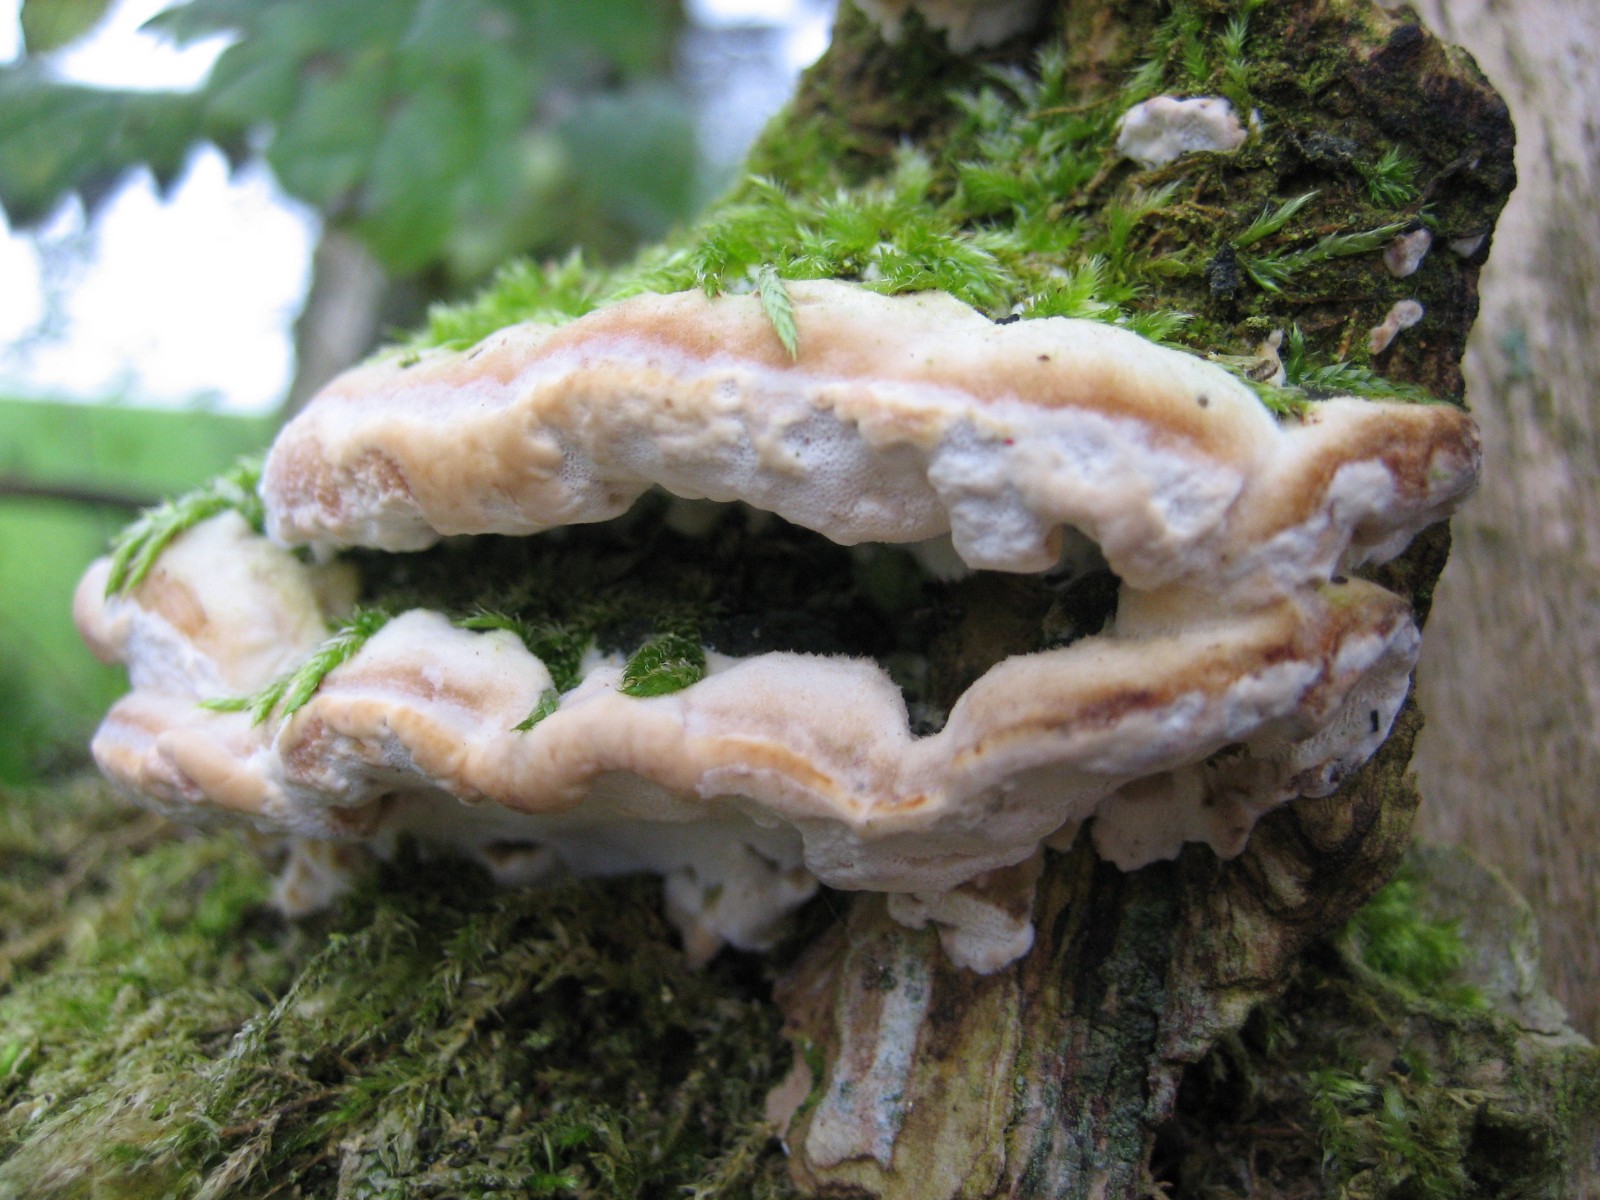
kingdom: Fungi
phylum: Basidiomycota
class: Agaricomycetes
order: Polyporales
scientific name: Polyporales
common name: poresvampordenen
